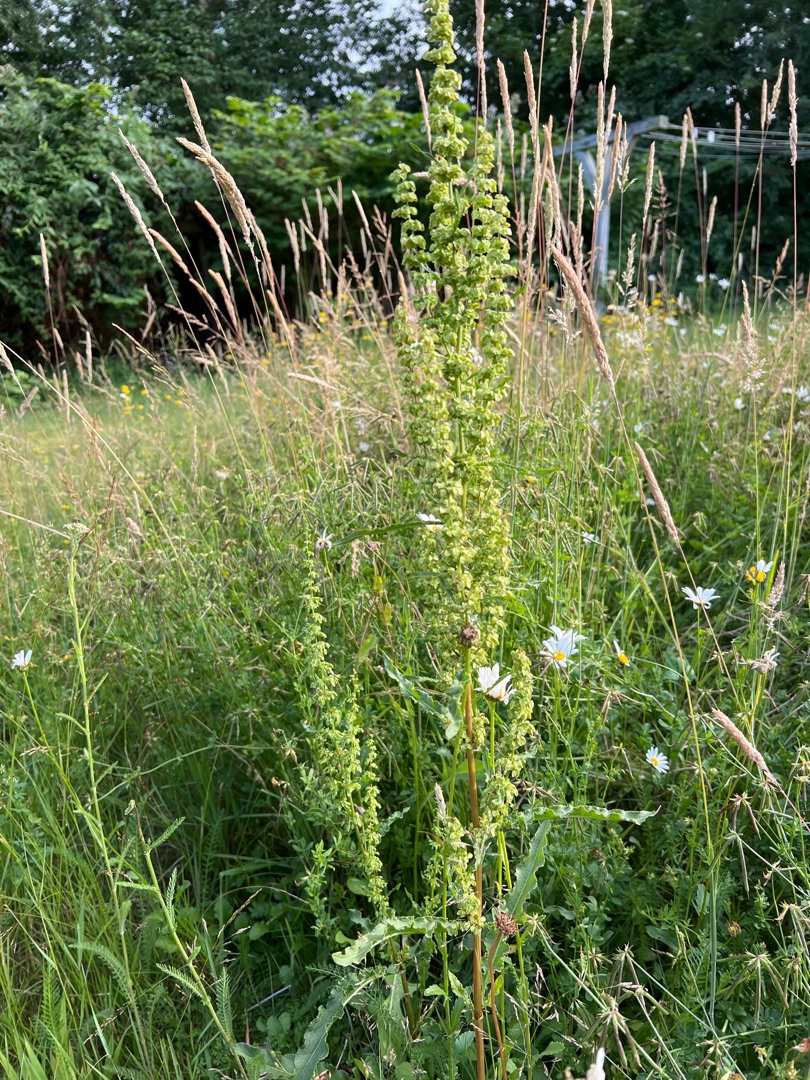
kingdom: Plantae
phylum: Tracheophyta
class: Magnoliopsida
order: Caryophyllales
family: Polygonaceae
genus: Rumex
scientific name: Rumex crispus
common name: Kruset skræppe
